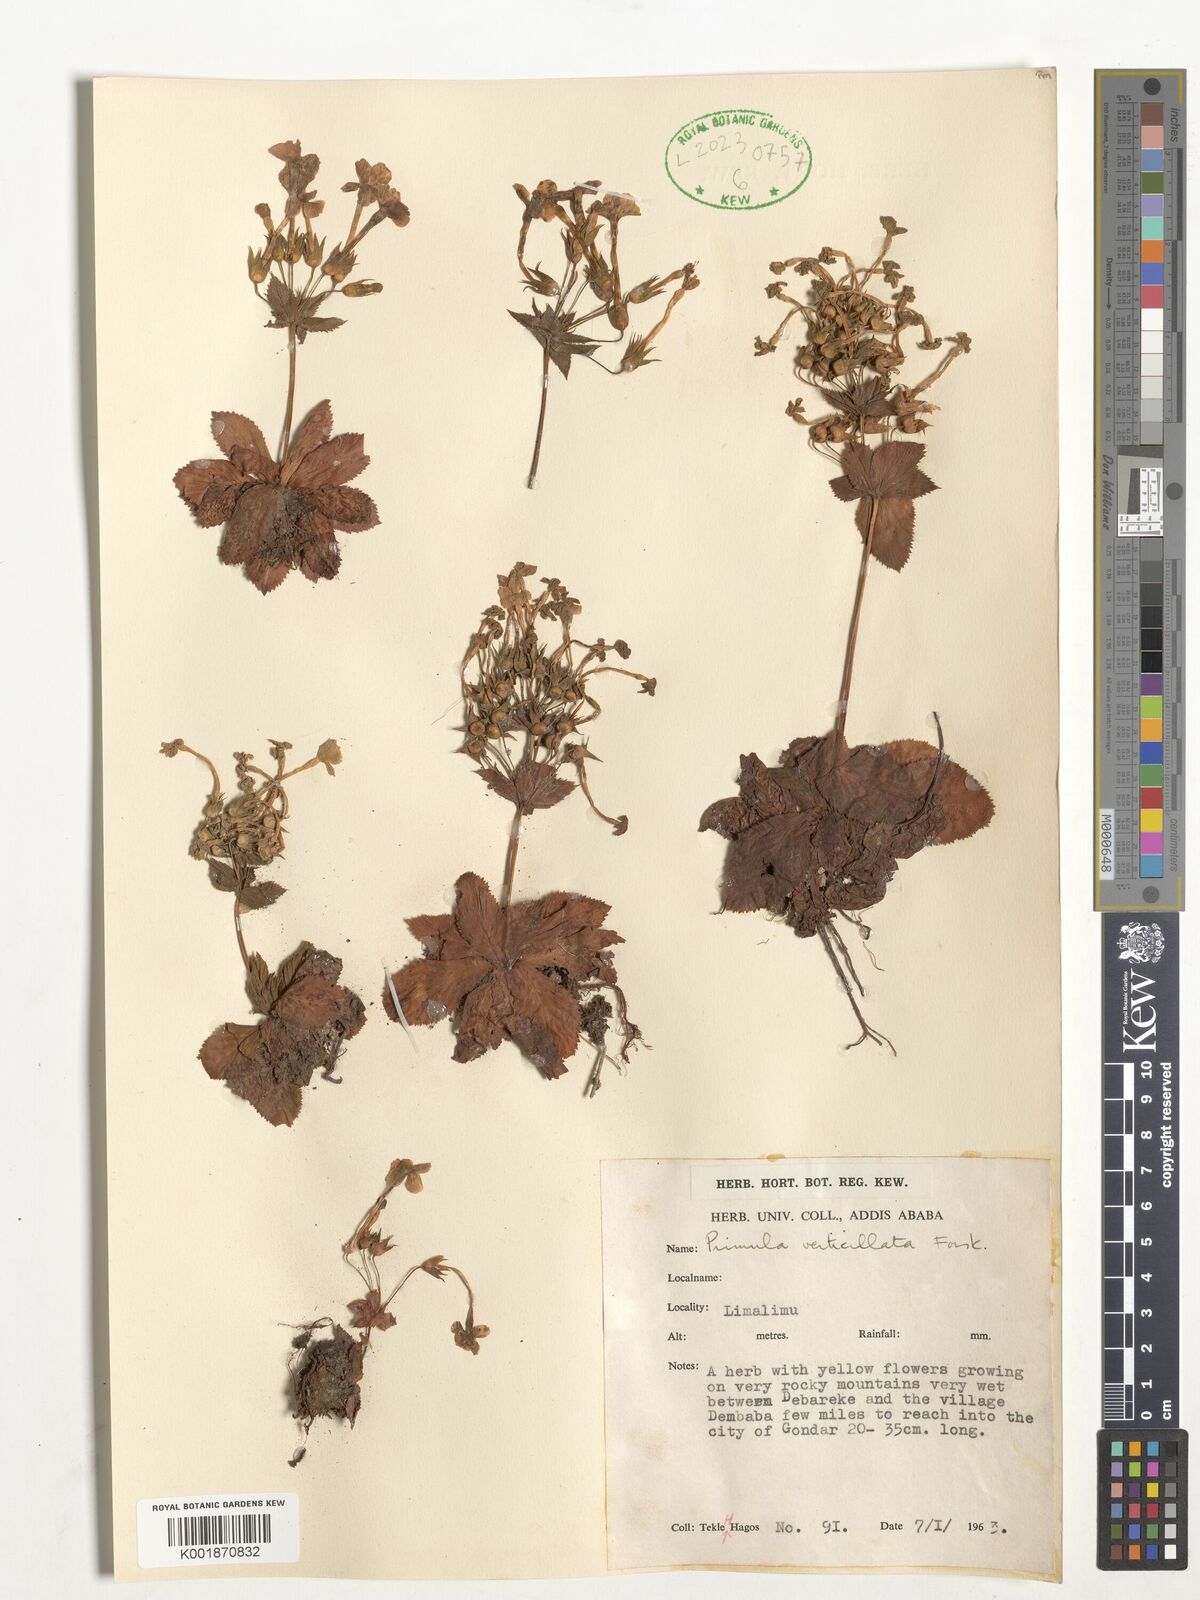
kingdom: Plantae
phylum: Tracheophyta
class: Magnoliopsida
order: Ericales
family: Primulaceae
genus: Evotrochis
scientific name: Evotrochis simensis
